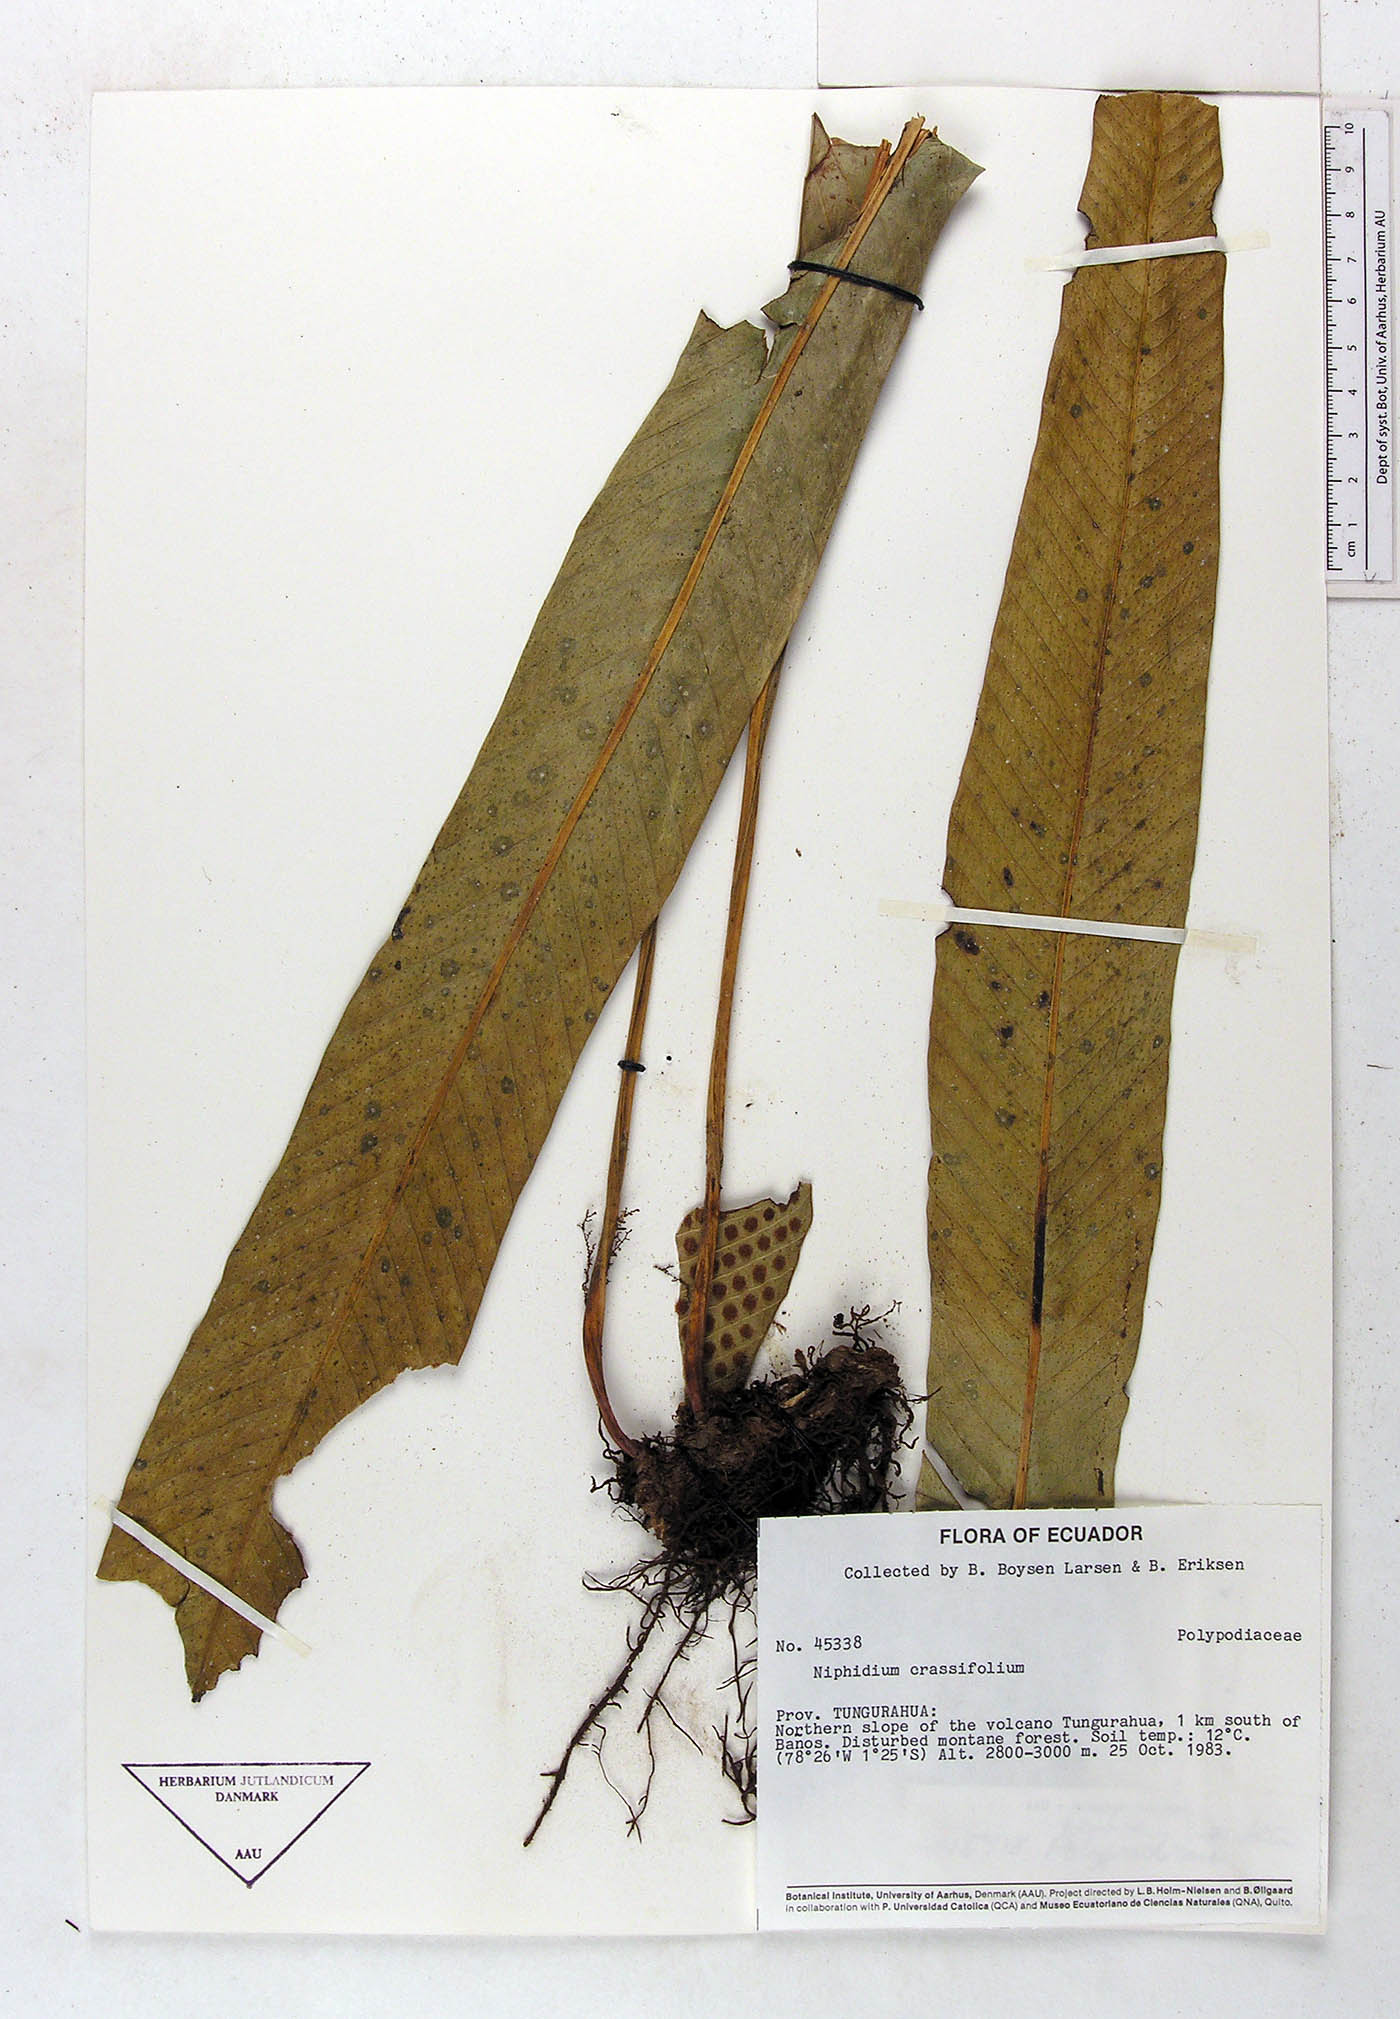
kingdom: Plantae
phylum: Tracheophyta
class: Polypodiopsida
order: Polypodiales
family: Polypodiaceae
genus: Niphidium
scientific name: Niphidium crassifolium
